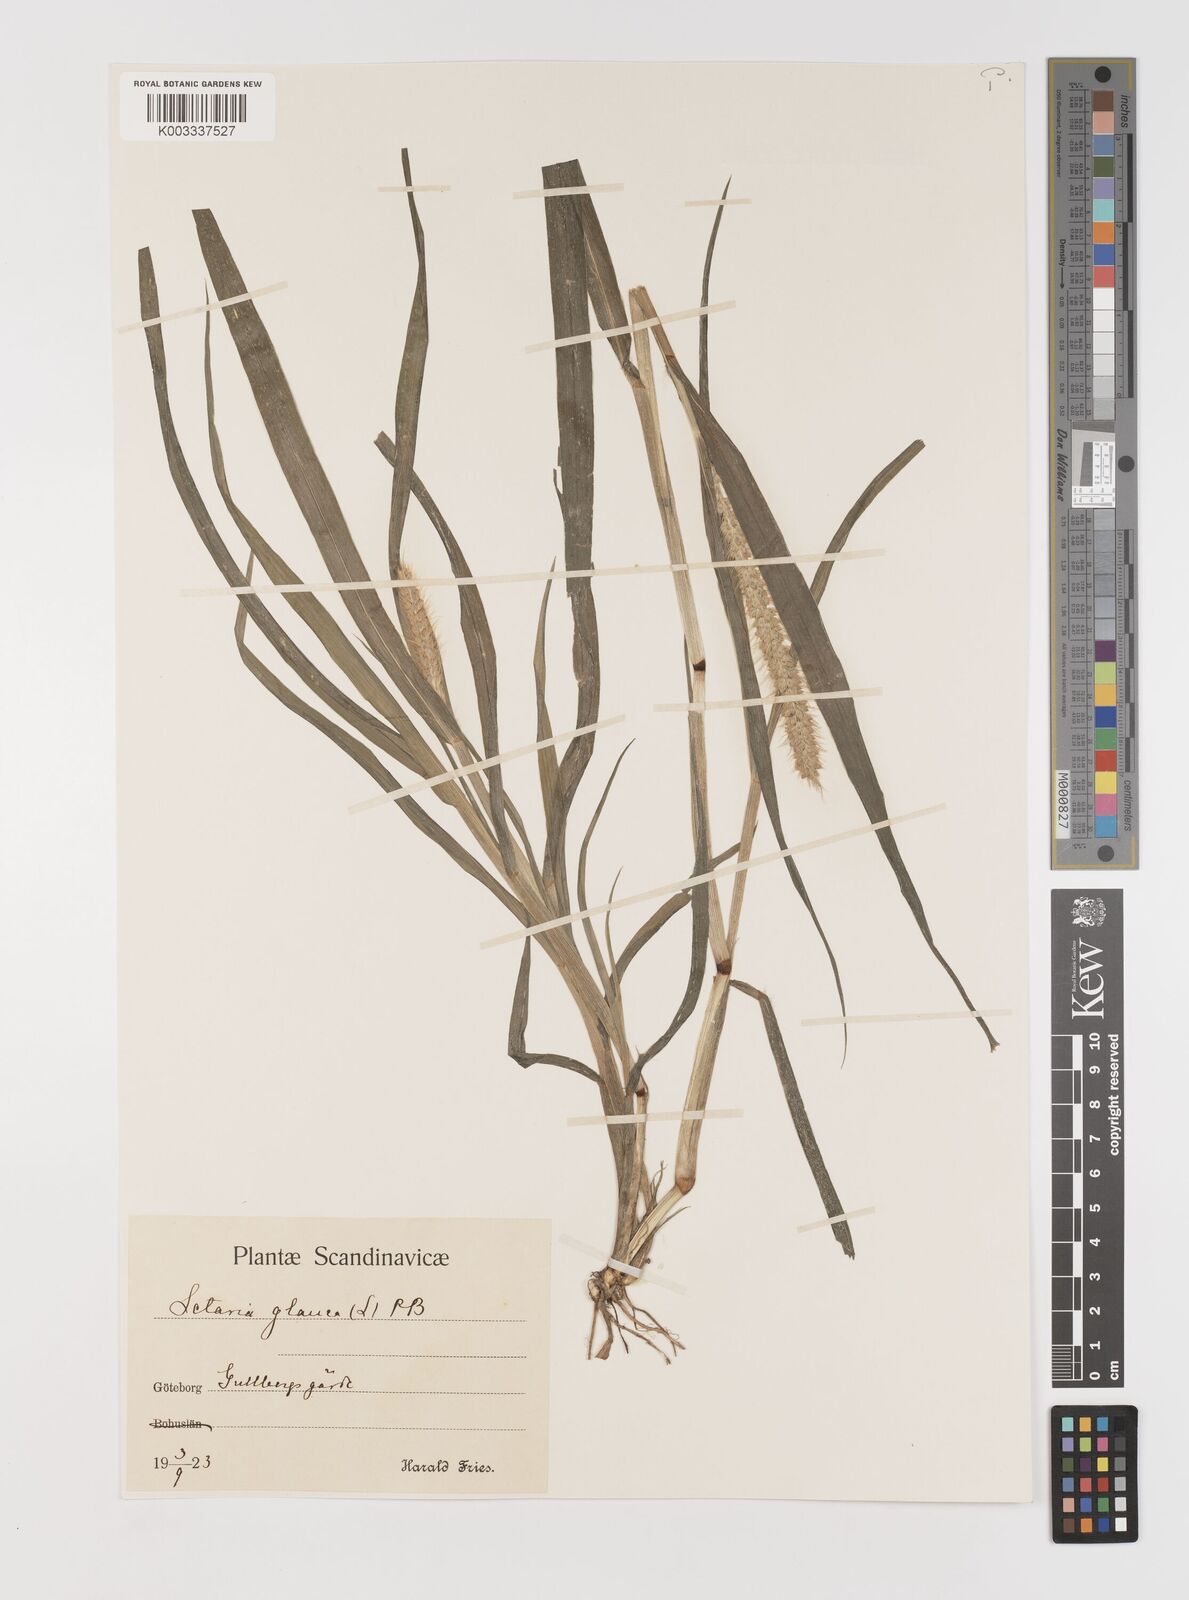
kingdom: Plantae
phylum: Tracheophyta
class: Liliopsida
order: Poales
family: Poaceae
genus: Setaria
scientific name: Setaria pumila
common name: Yellow bristle-grass
